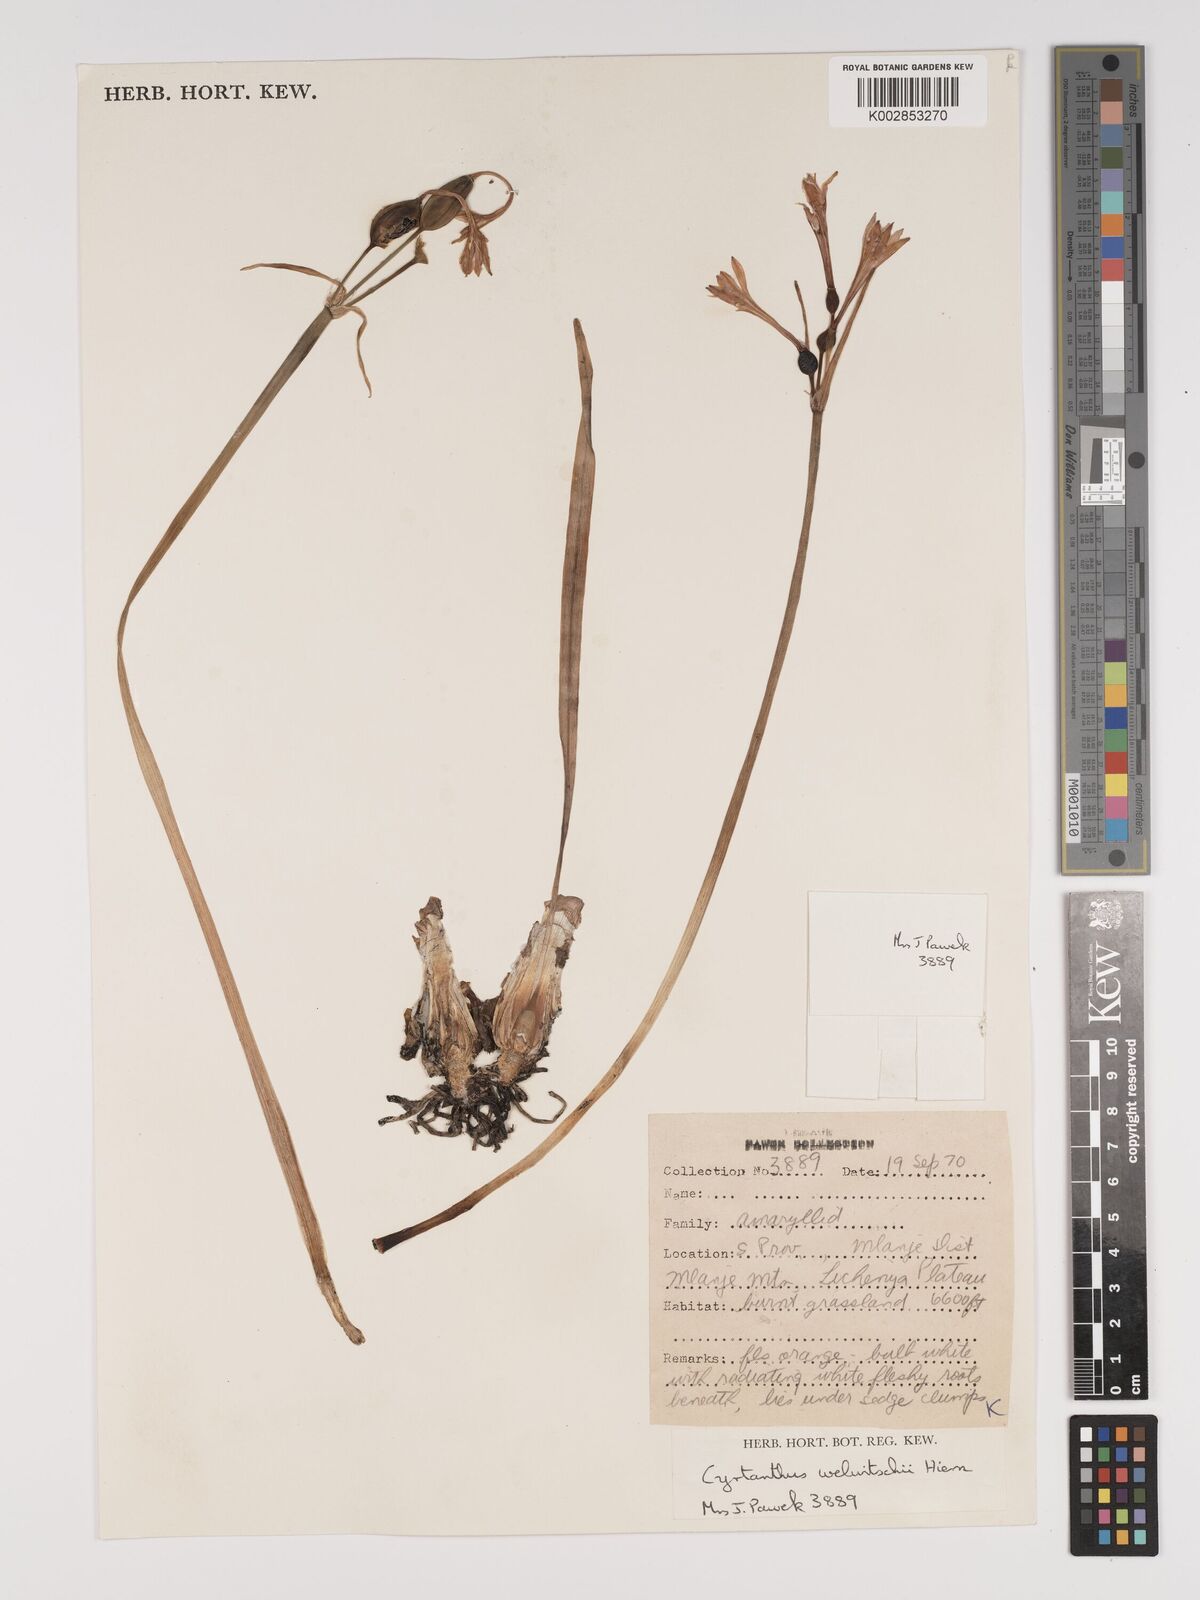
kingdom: Plantae
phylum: Tracheophyta
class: Liliopsida
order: Asparagales
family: Amaryllidaceae
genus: Cyrtanthus
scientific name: Cyrtanthus welwitschii
